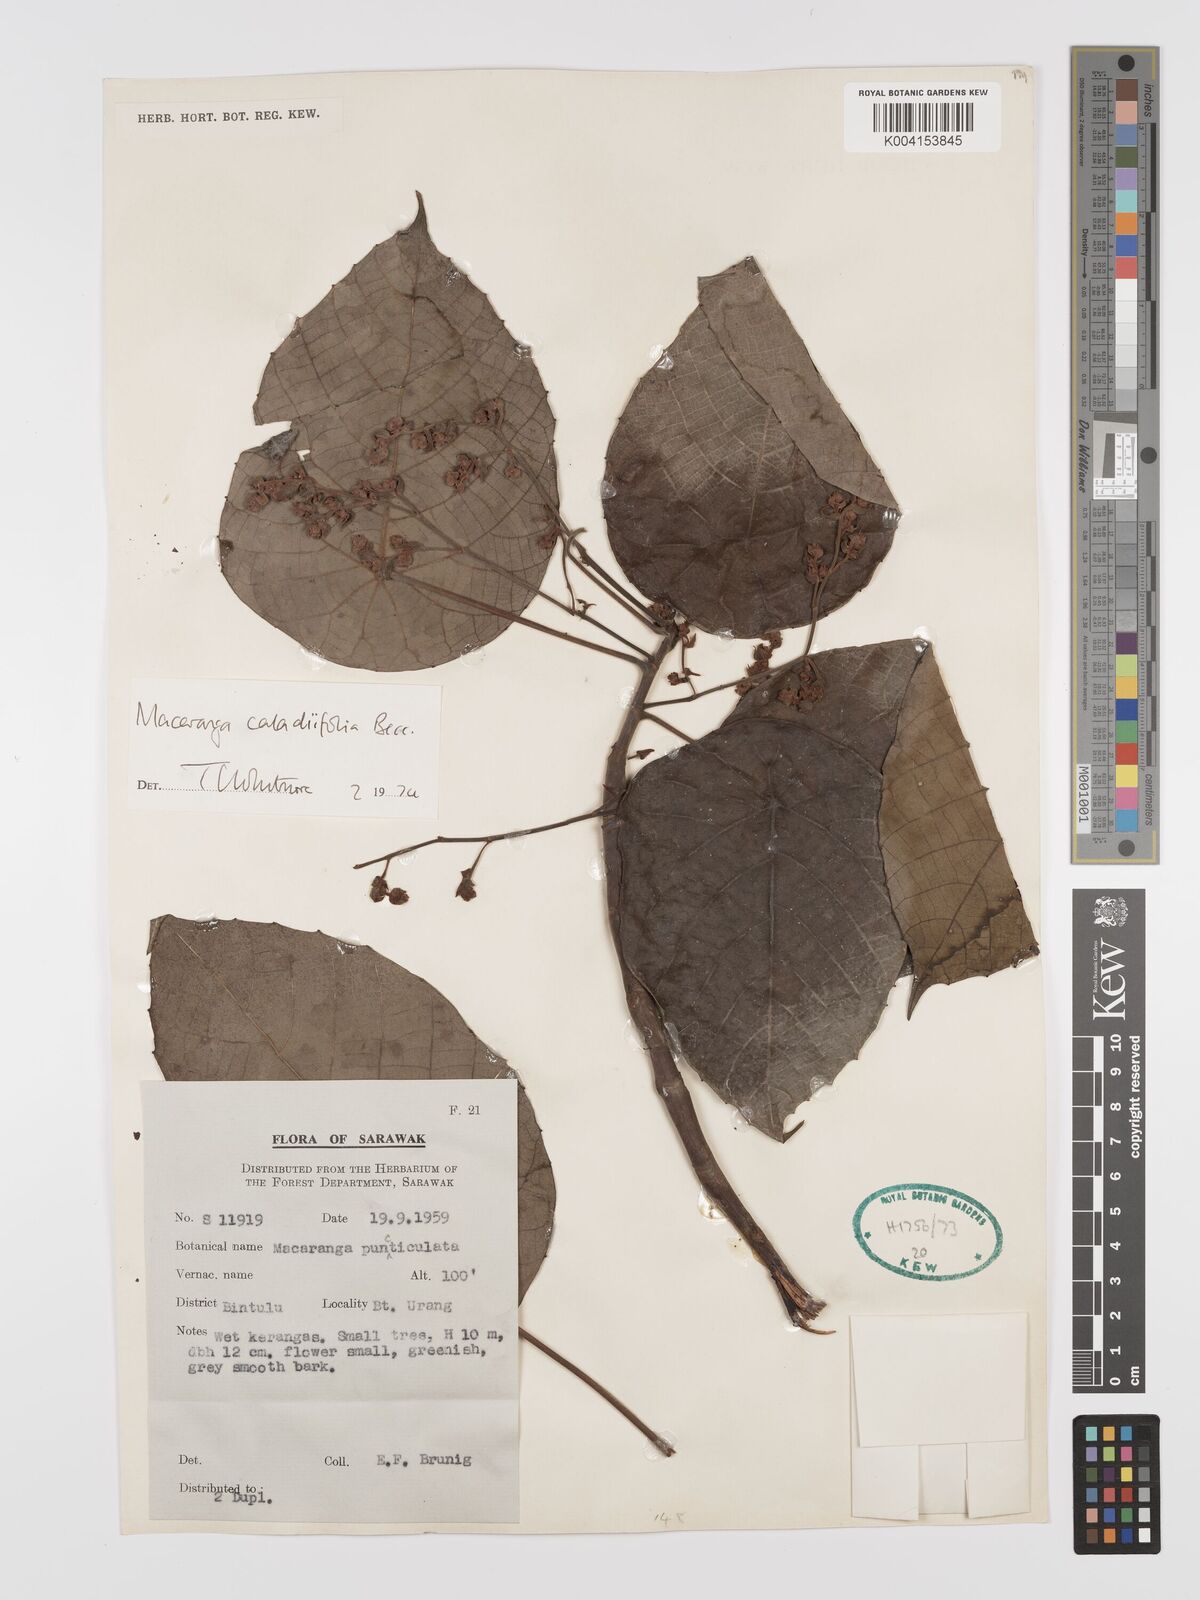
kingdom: Plantae
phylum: Tracheophyta
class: Magnoliopsida
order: Malpighiales
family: Euphorbiaceae
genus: Macaranga
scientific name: Macaranga caladiifolia
